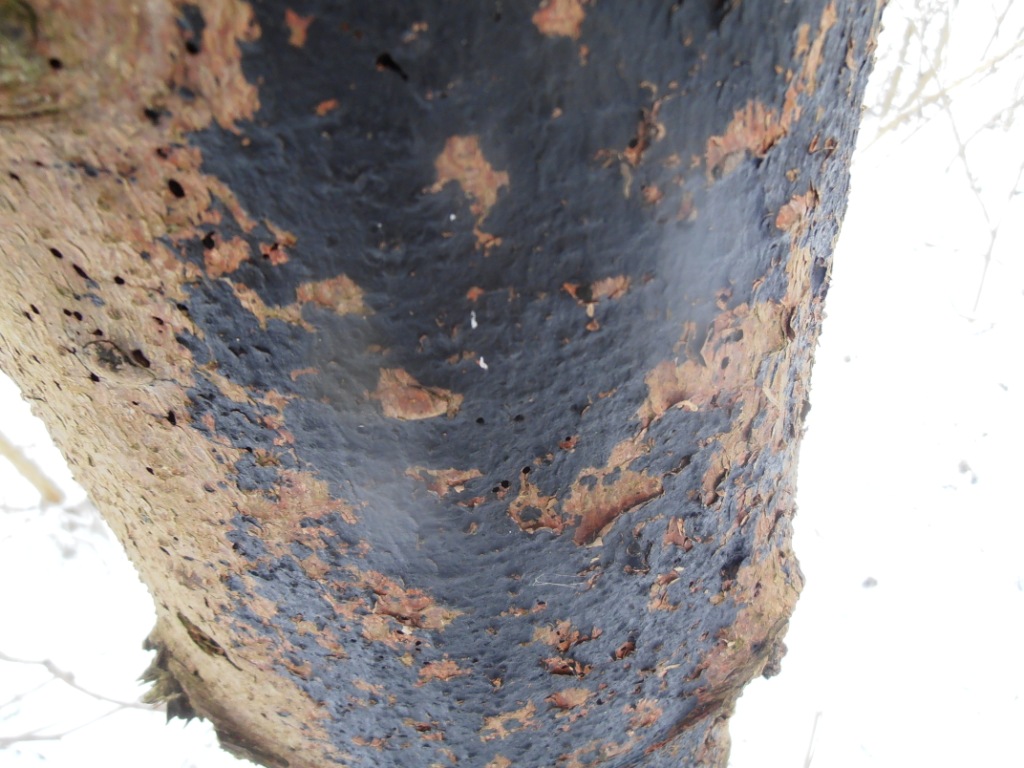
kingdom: Fungi
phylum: Basidiomycota
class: Agaricomycetes
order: Auriculariales
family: Auriculariaceae
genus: Exidia
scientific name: Exidia pithya
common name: gran-bævretop
